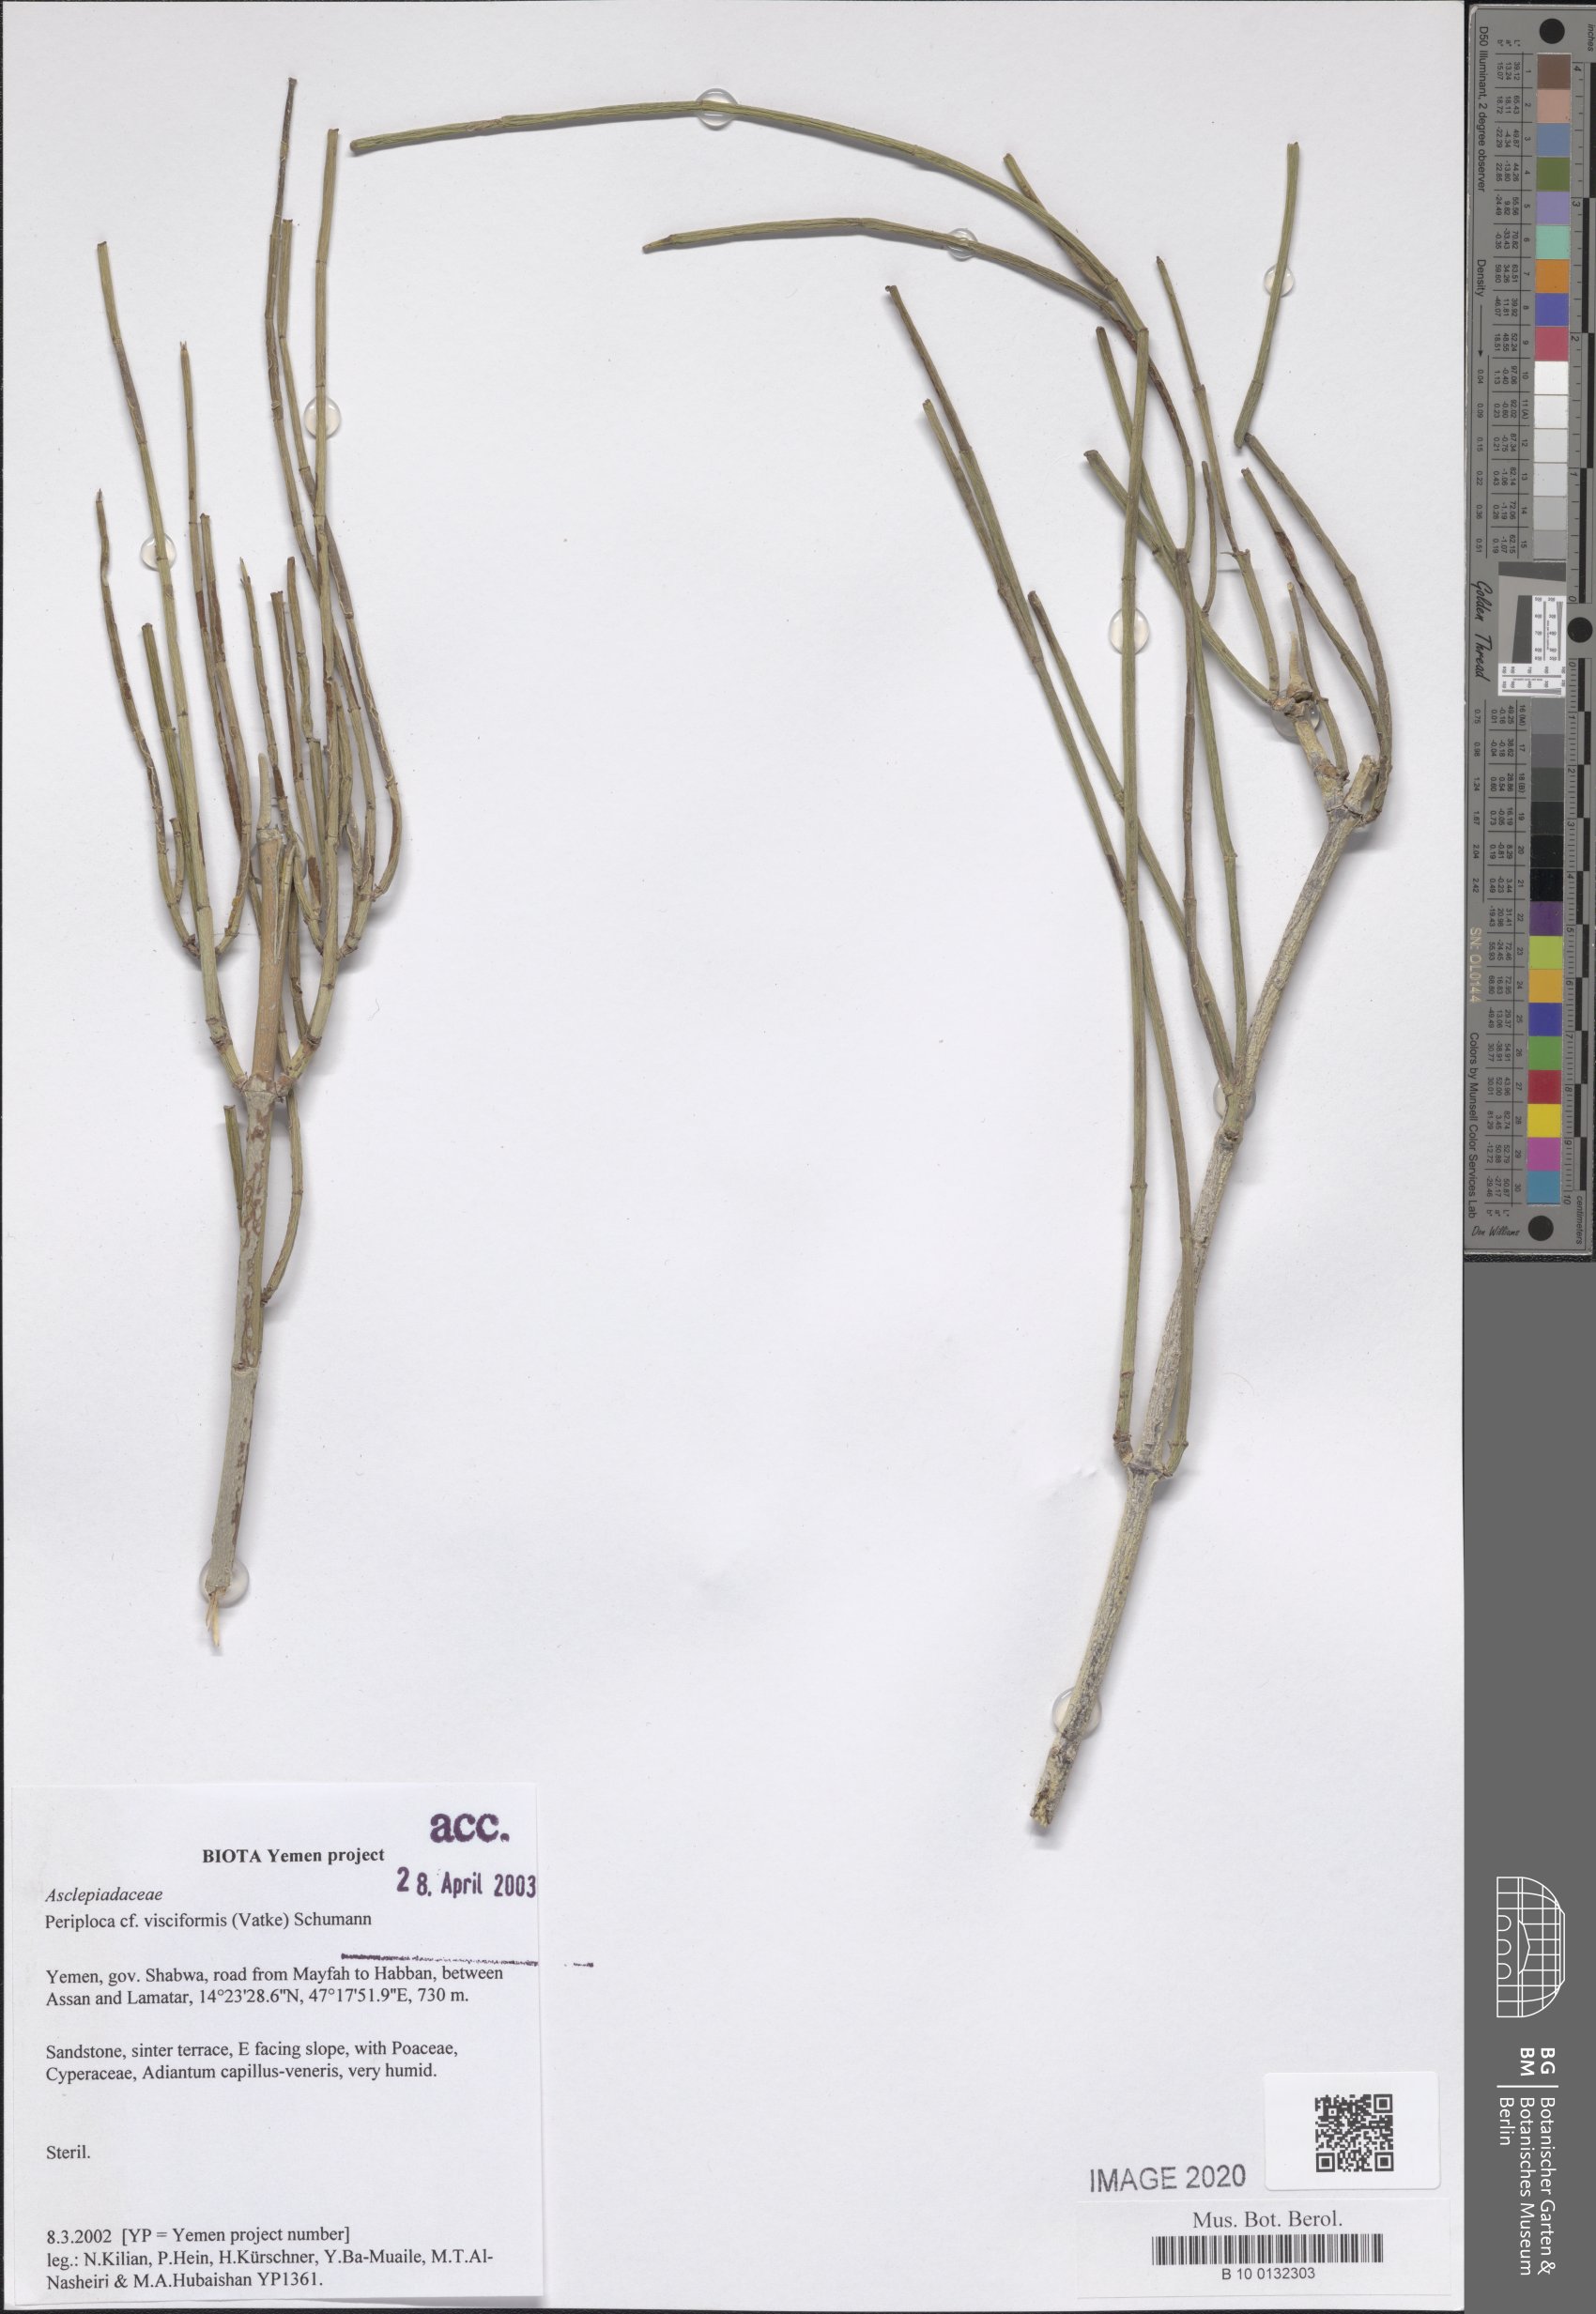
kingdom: Plantae
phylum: Tracheophyta
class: Magnoliopsida
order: Gentianales
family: Apocynaceae
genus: Periploca
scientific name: Periploca visciformis
